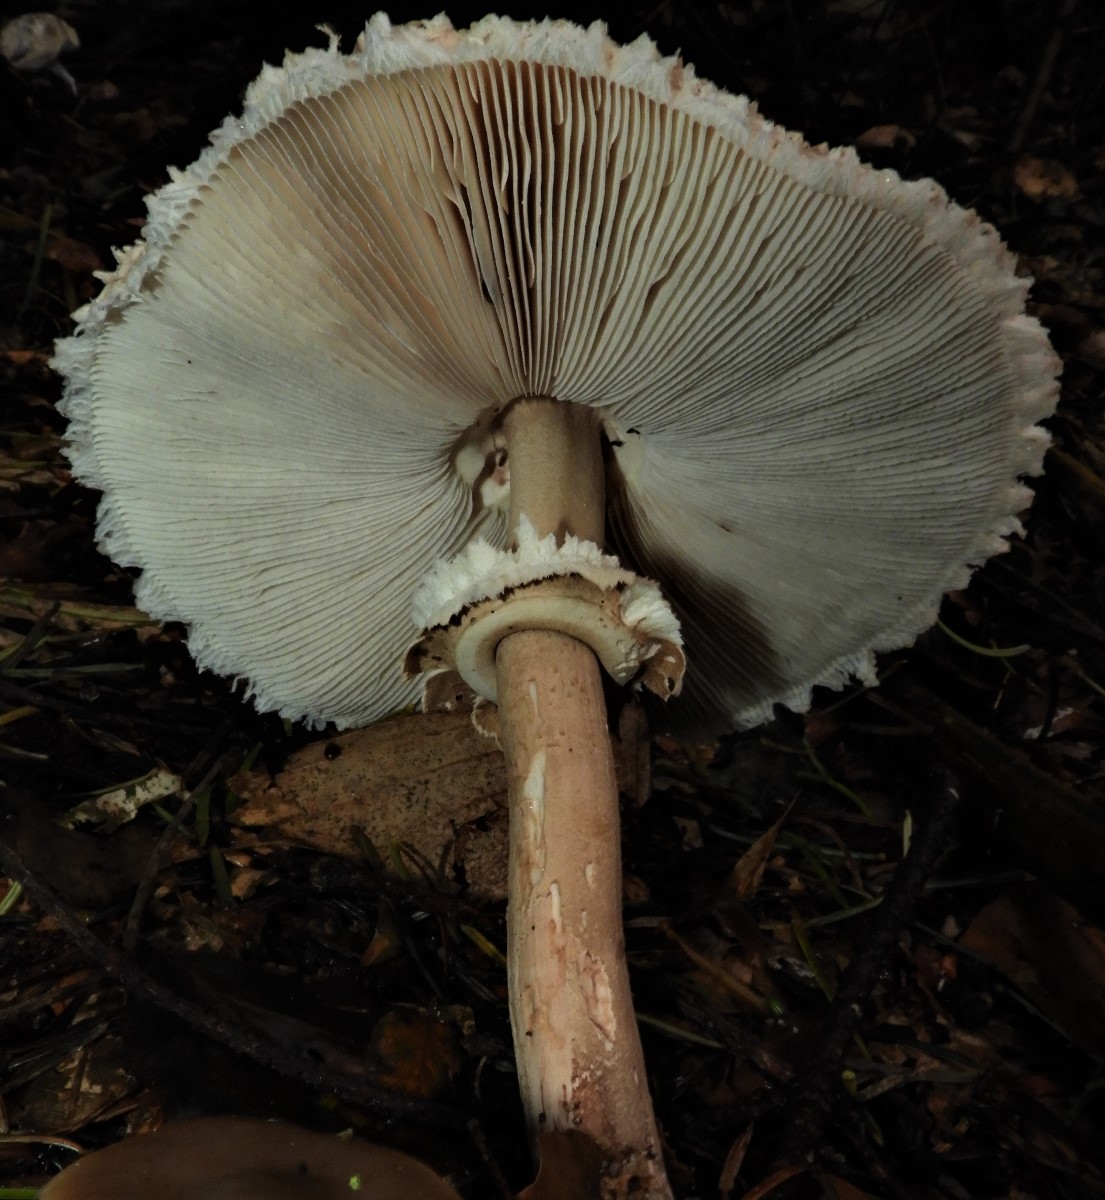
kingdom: Fungi
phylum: Basidiomycota
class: Agaricomycetes
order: Agaricales
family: Agaricaceae
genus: Macrolepiota
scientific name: Macrolepiota mastoidea
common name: puklet kæmpeparasolhat
